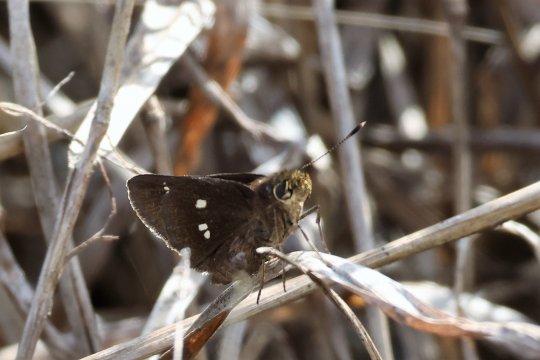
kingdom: Animalia
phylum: Arthropoda
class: Insecta
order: Lepidoptera
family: Hesperiidae
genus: Oligoria
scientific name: Oligoria maculata
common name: Twin-spot Skipper
